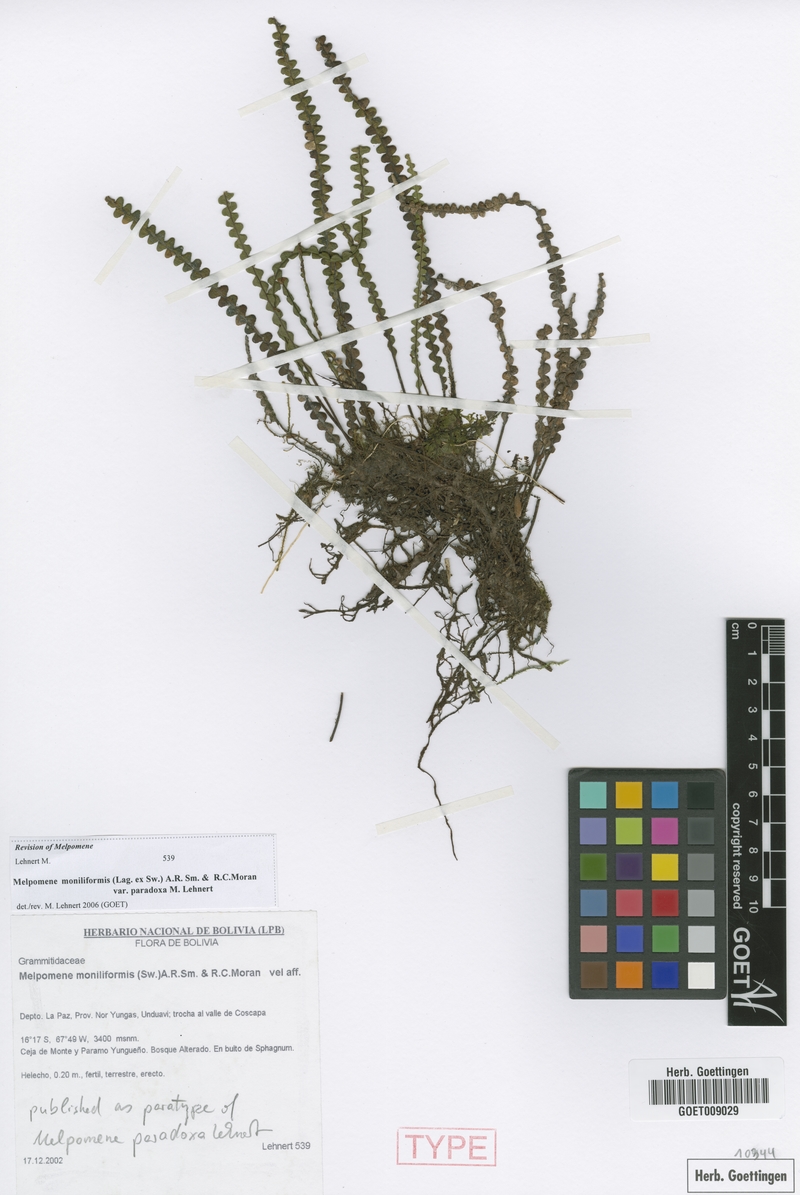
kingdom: Plantae
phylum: Tracheophyta
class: Polypodiopsida
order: Polypodiales
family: Polypodiaceae
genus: Melpomene
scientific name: Melpomene paradoxa
